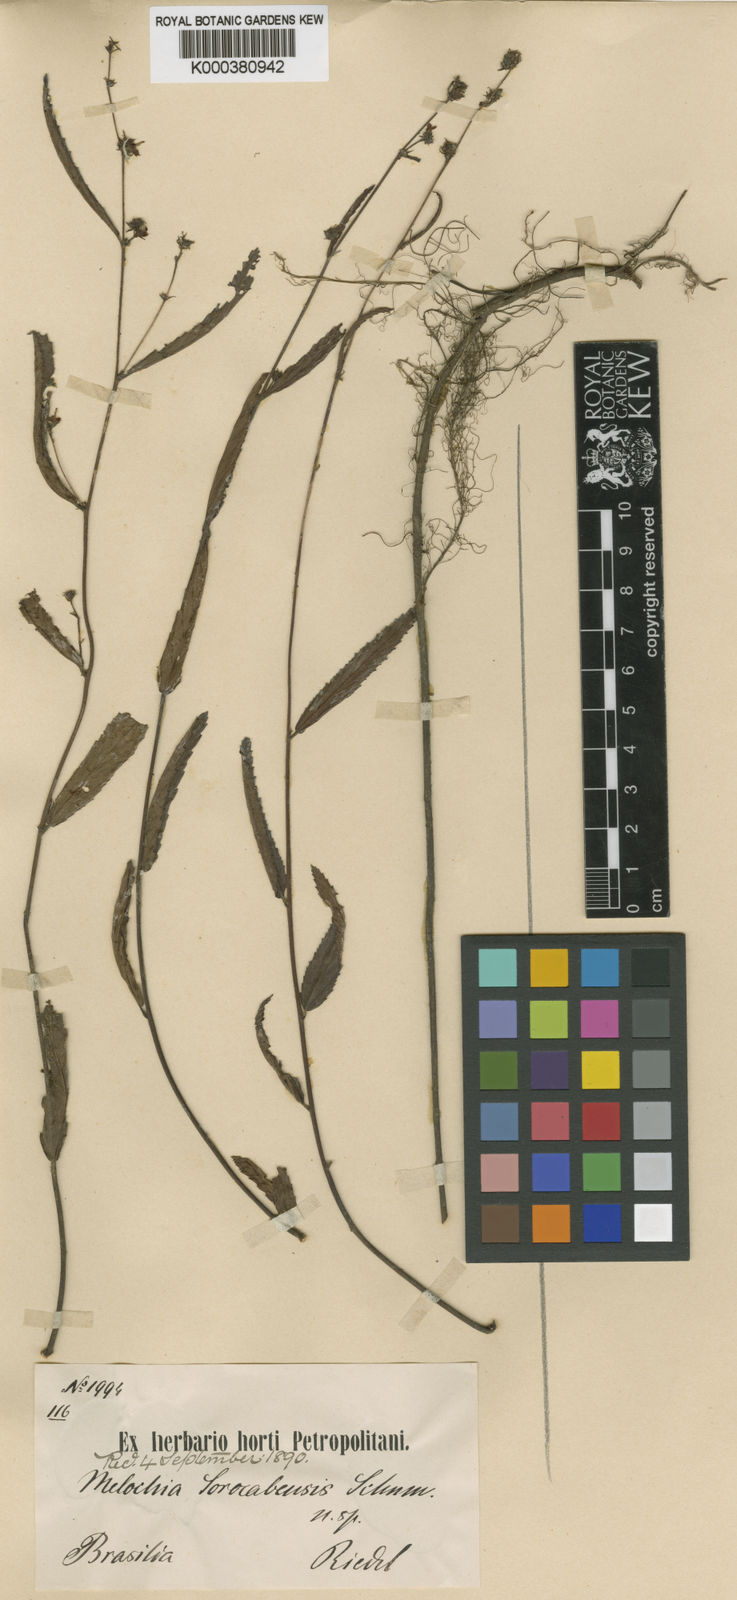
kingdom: Plantae
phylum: Tracheophyta
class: Magnoliopsida
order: Malvales
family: Malvaceae
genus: Melochia
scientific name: Melochia simplex
